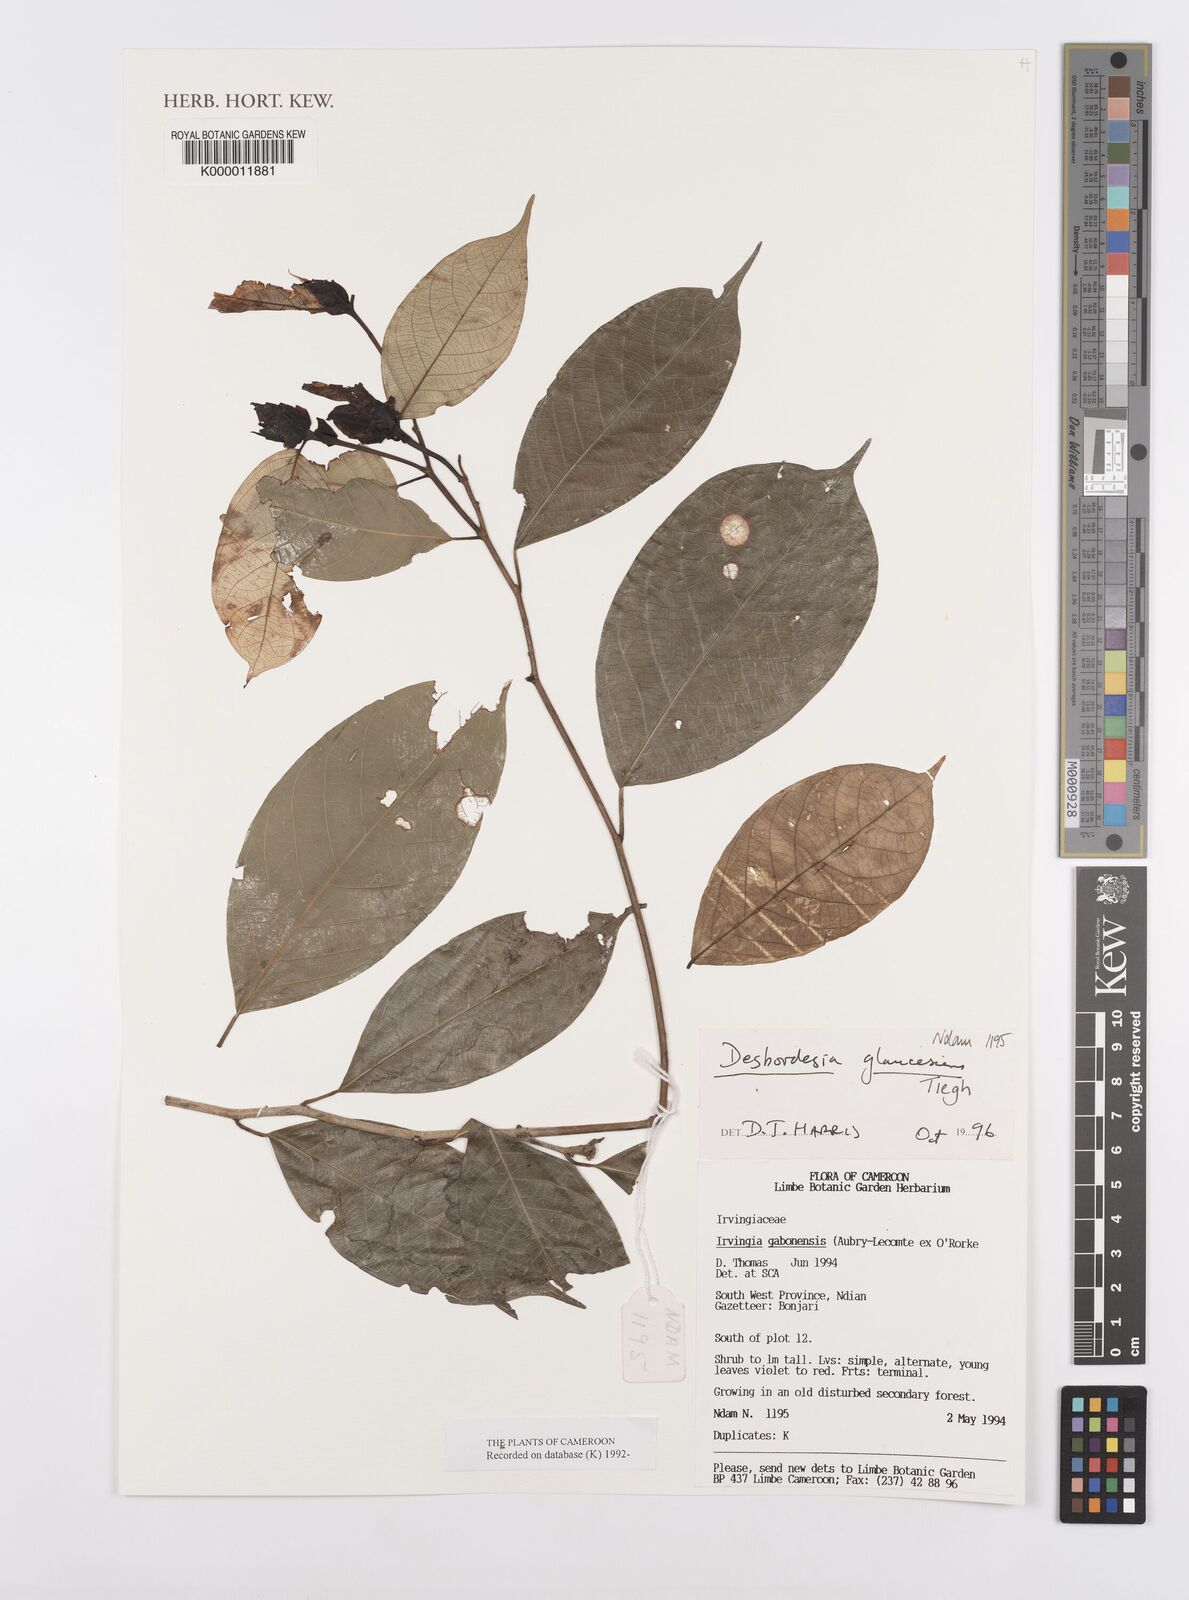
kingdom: Plantae
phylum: Tracheophyta
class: Magnoliopsida
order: Malpighiales
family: Irvingiaceae
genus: Desbordesia
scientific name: Desbordesia glaucescens
